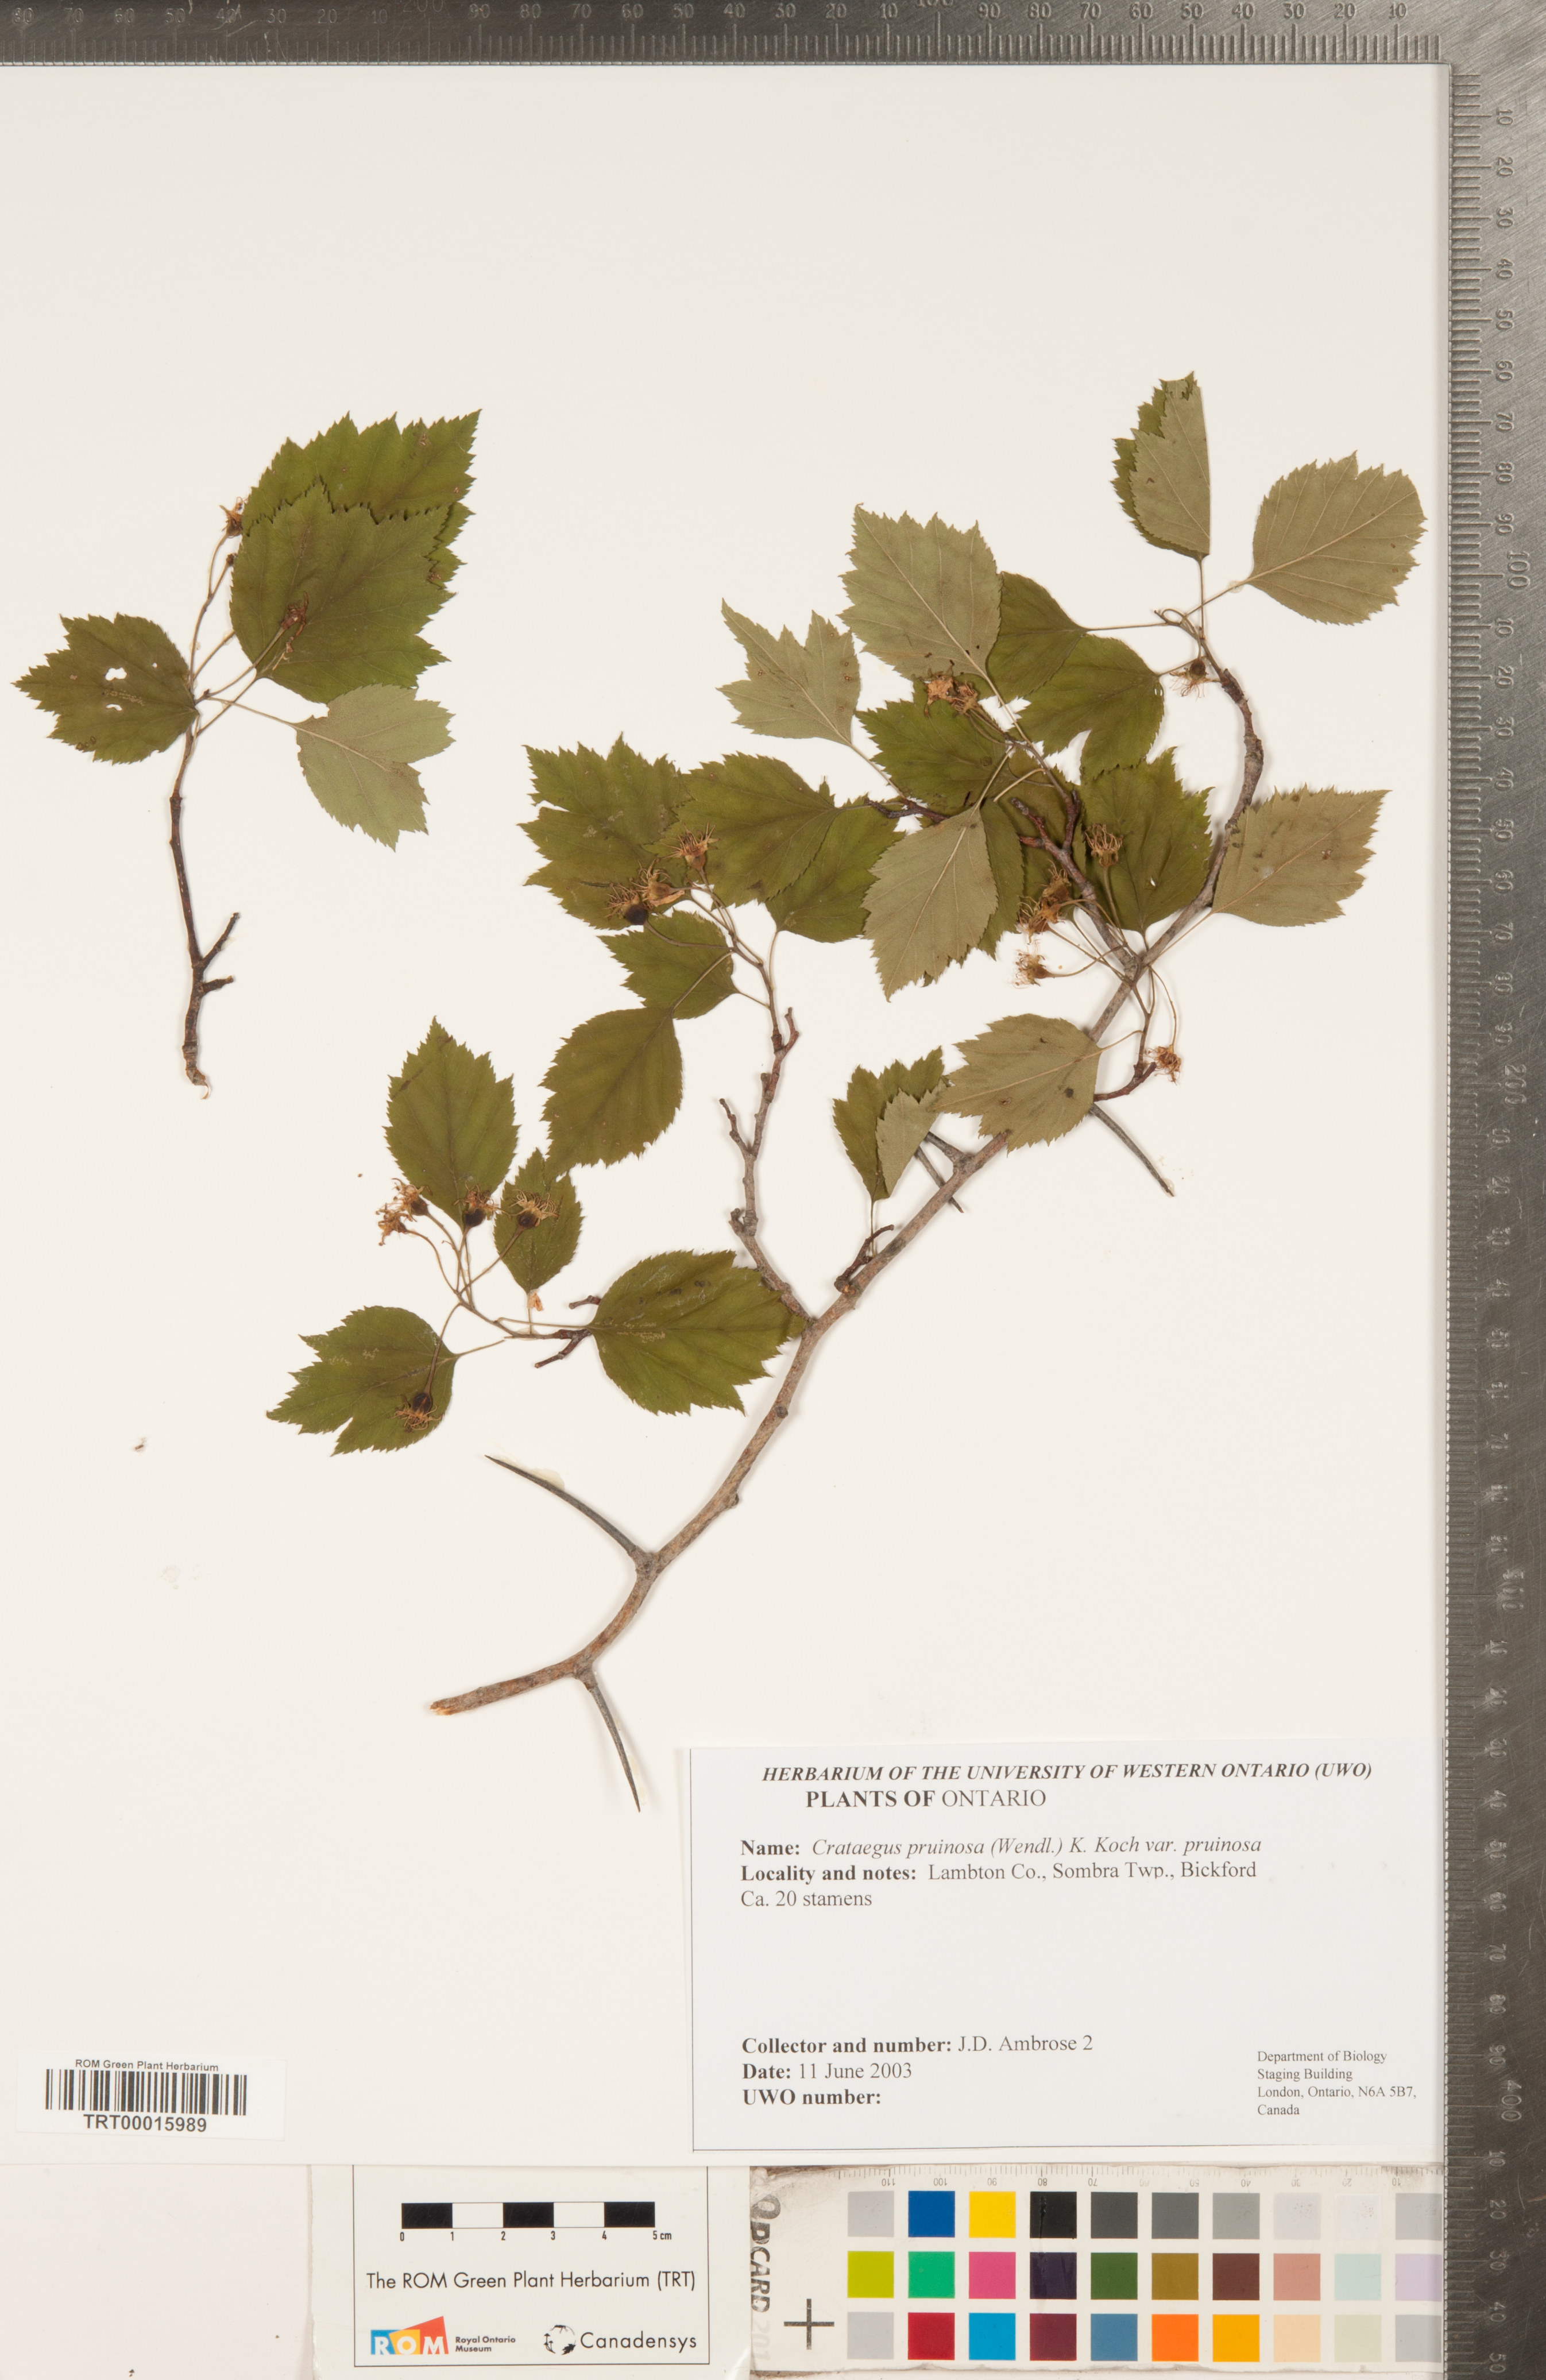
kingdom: Plantae
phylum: Tracheophyta
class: Magnoliopsida
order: Rosales
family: Rosaceae
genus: Crataegus
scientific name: Crataegus pruinosa
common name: Waxy-fruit hawthorn
